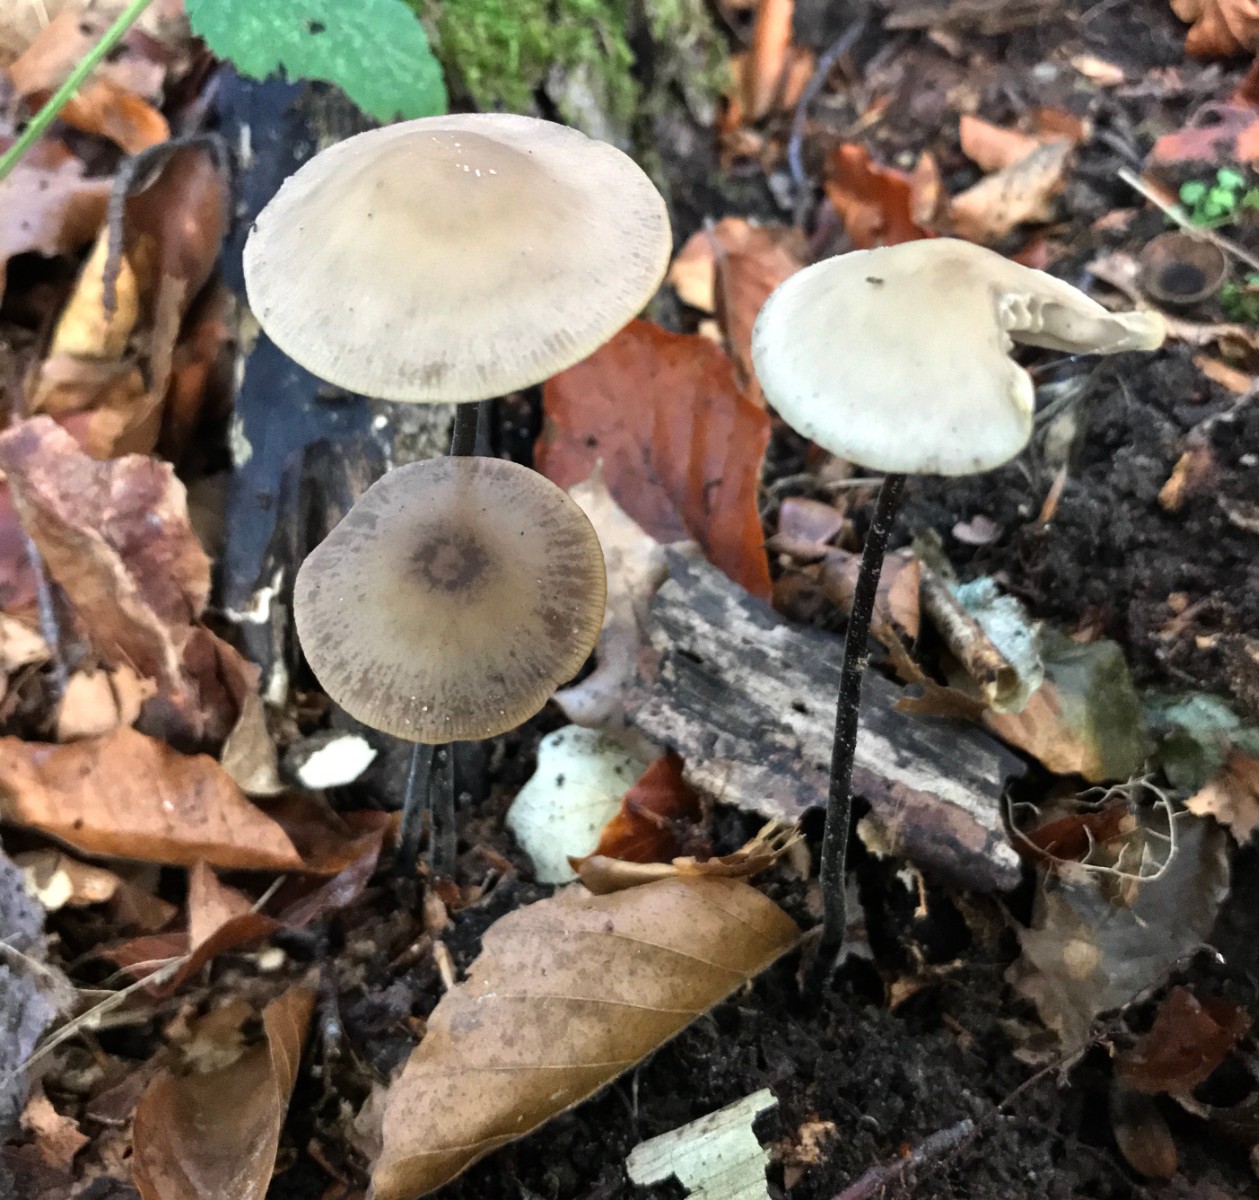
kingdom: Fungi
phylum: Basidiomycota
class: Agaricomycetes
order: Agaricales
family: Omphalotaceae
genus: Mycetinis
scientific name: Mycetinis alliaceus
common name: stor løghat
